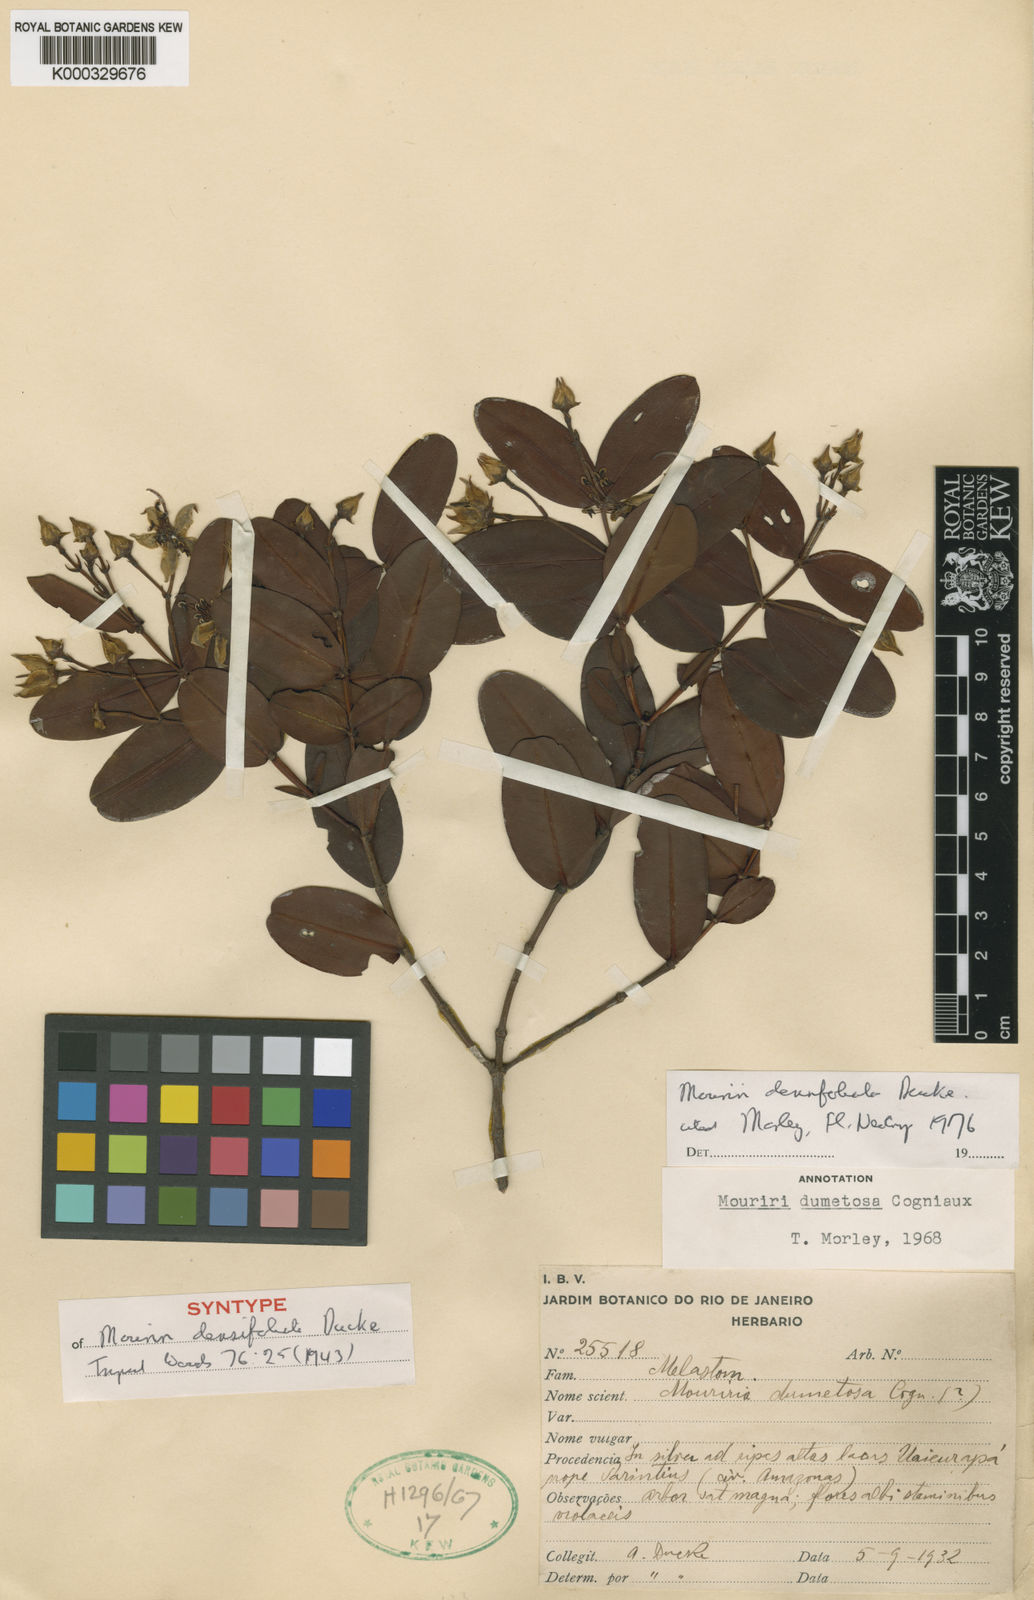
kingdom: Plantae
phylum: Tracheophyta
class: Magnoliopsida
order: Myrtales
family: Melastomataceae
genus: Mouriri
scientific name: Mouriri densifoliata
